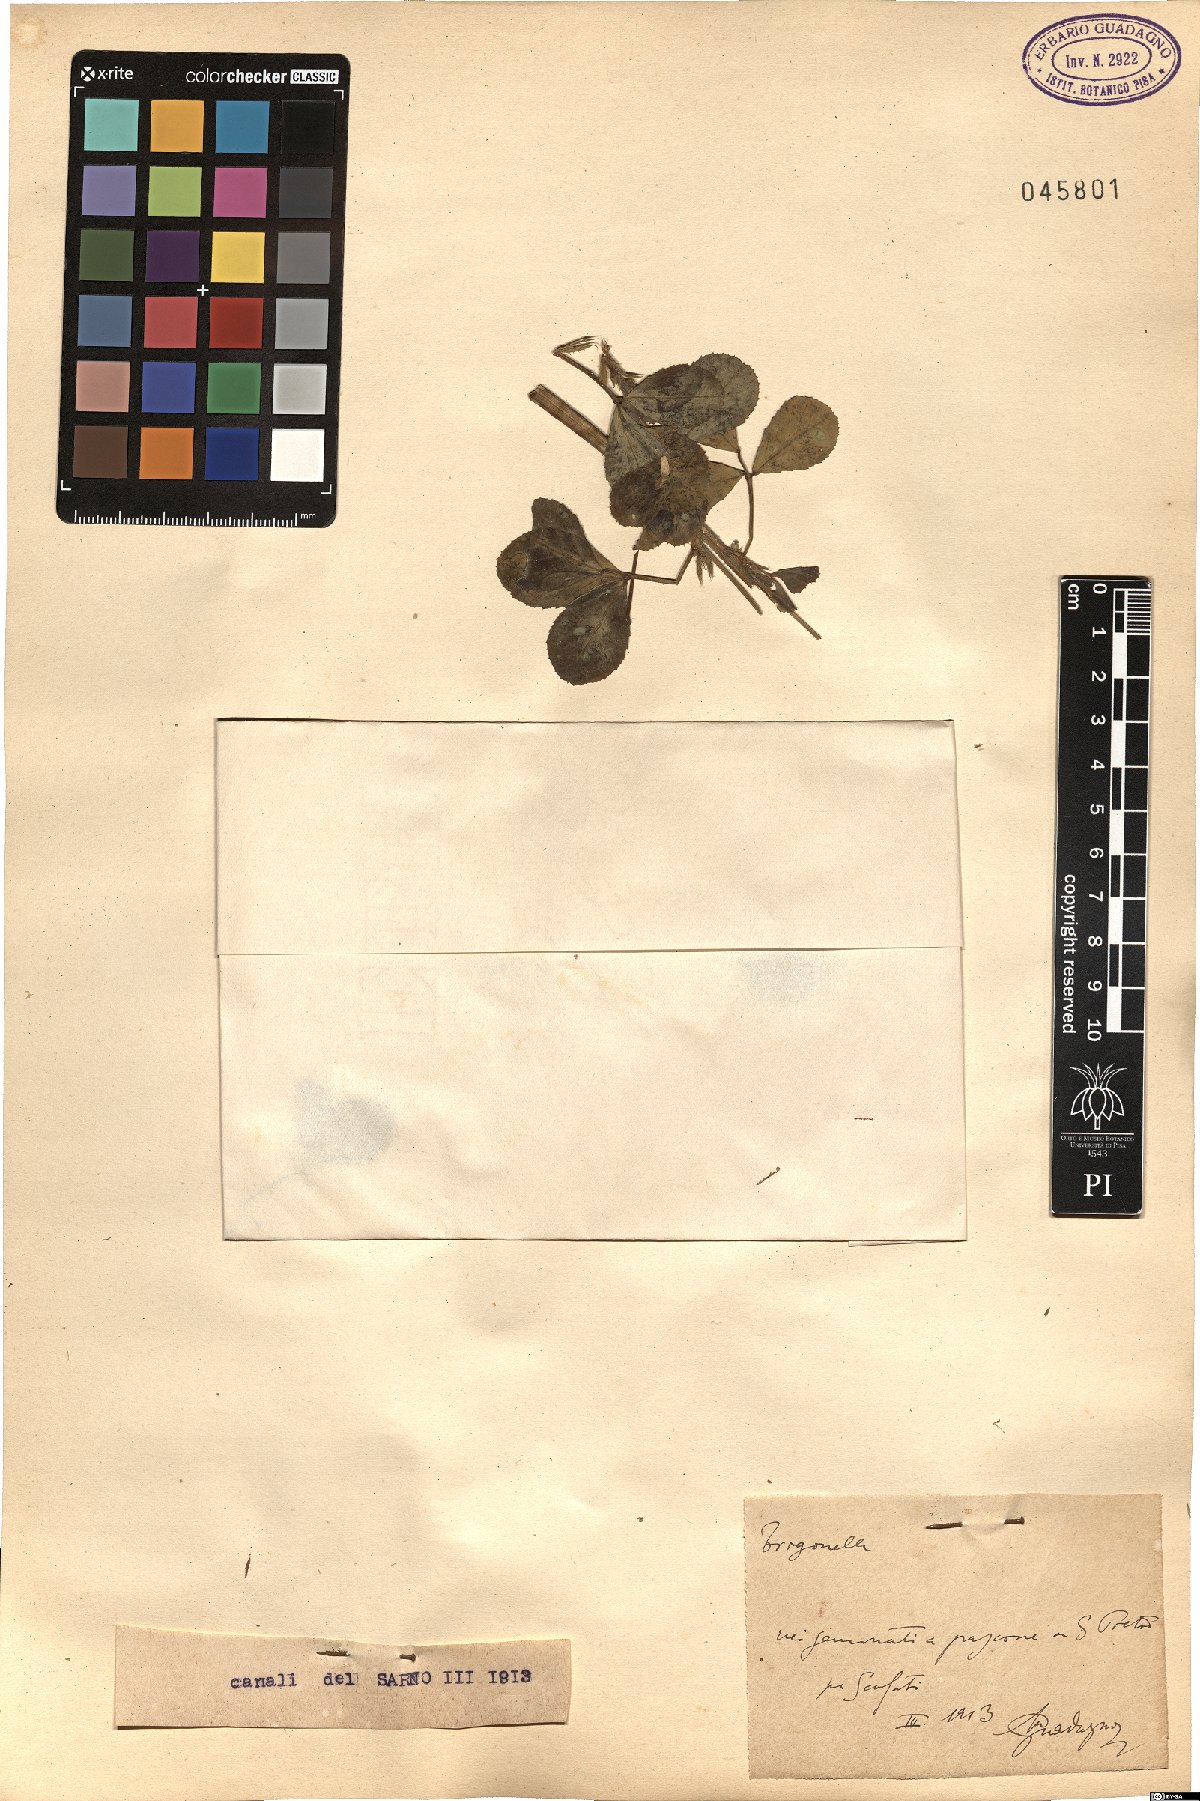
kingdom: Plantae
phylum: Tracheophyta
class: Magnoliopsida
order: Fabales
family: Fabaceae
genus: Trigonella
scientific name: Trigonella
